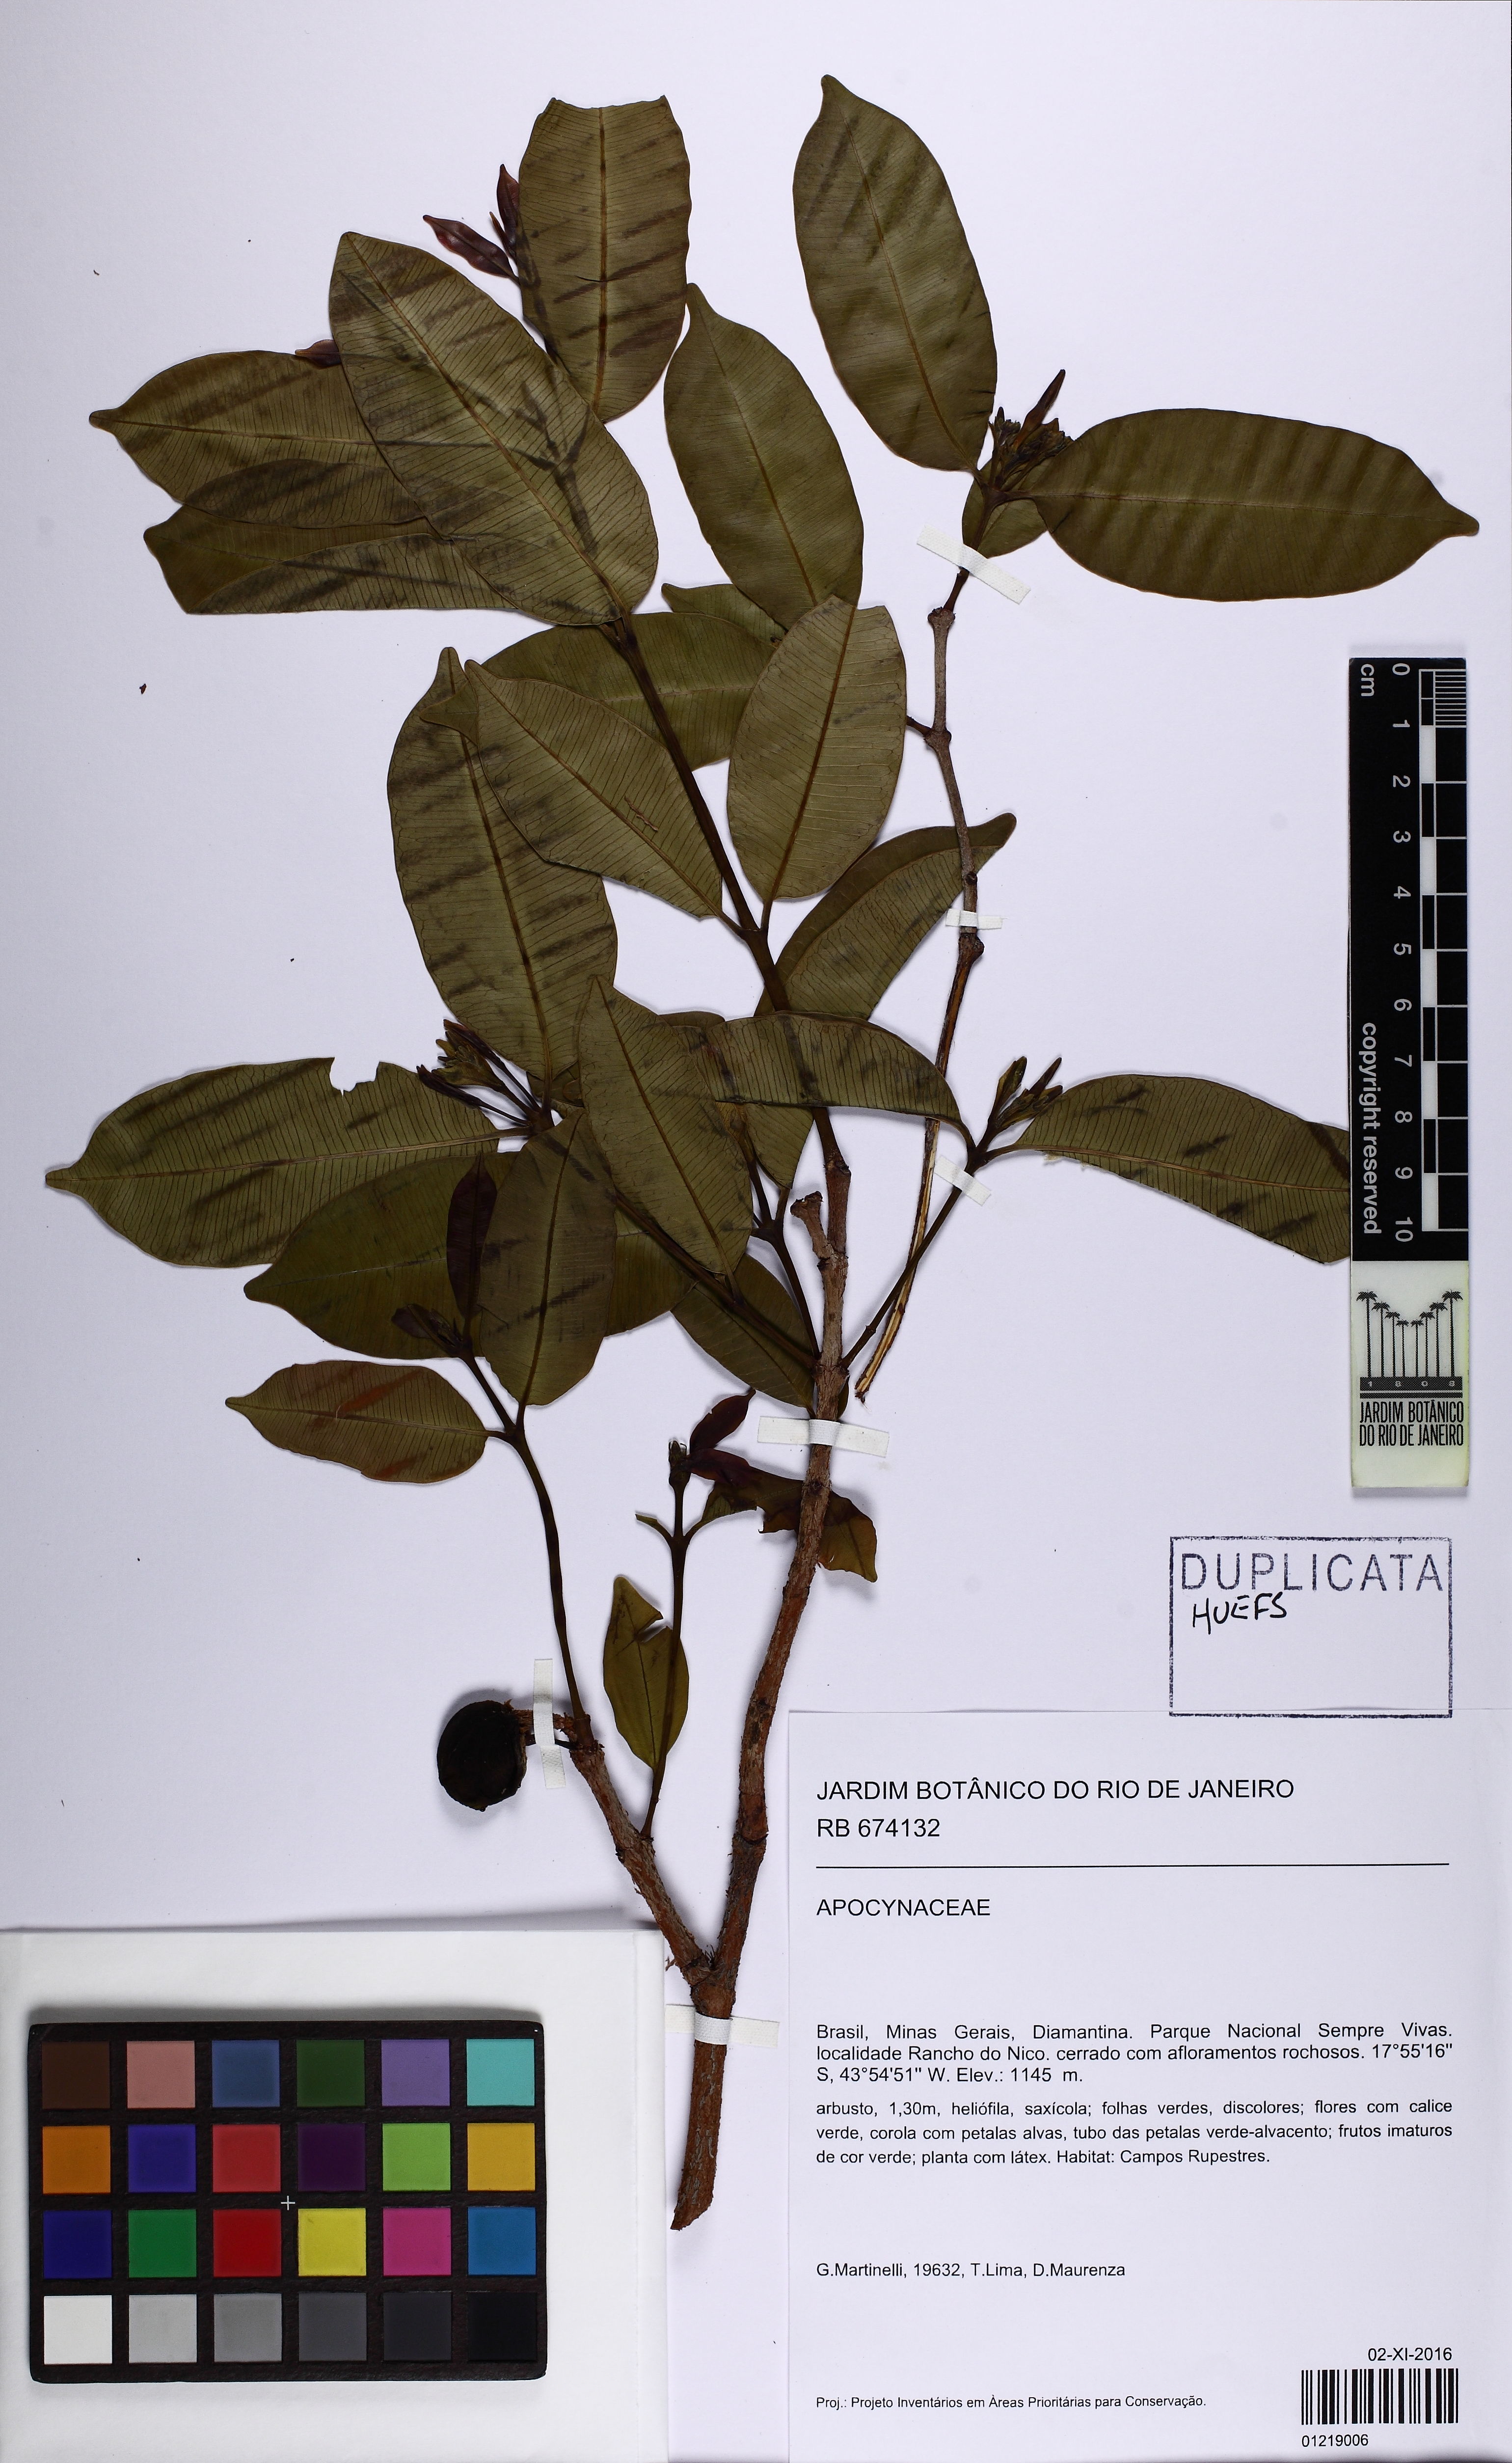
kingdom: Plantae
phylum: Tracheophyta
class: Magnoliopsida
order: Gentianales
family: Apocynaceae
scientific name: Apocynaceae
